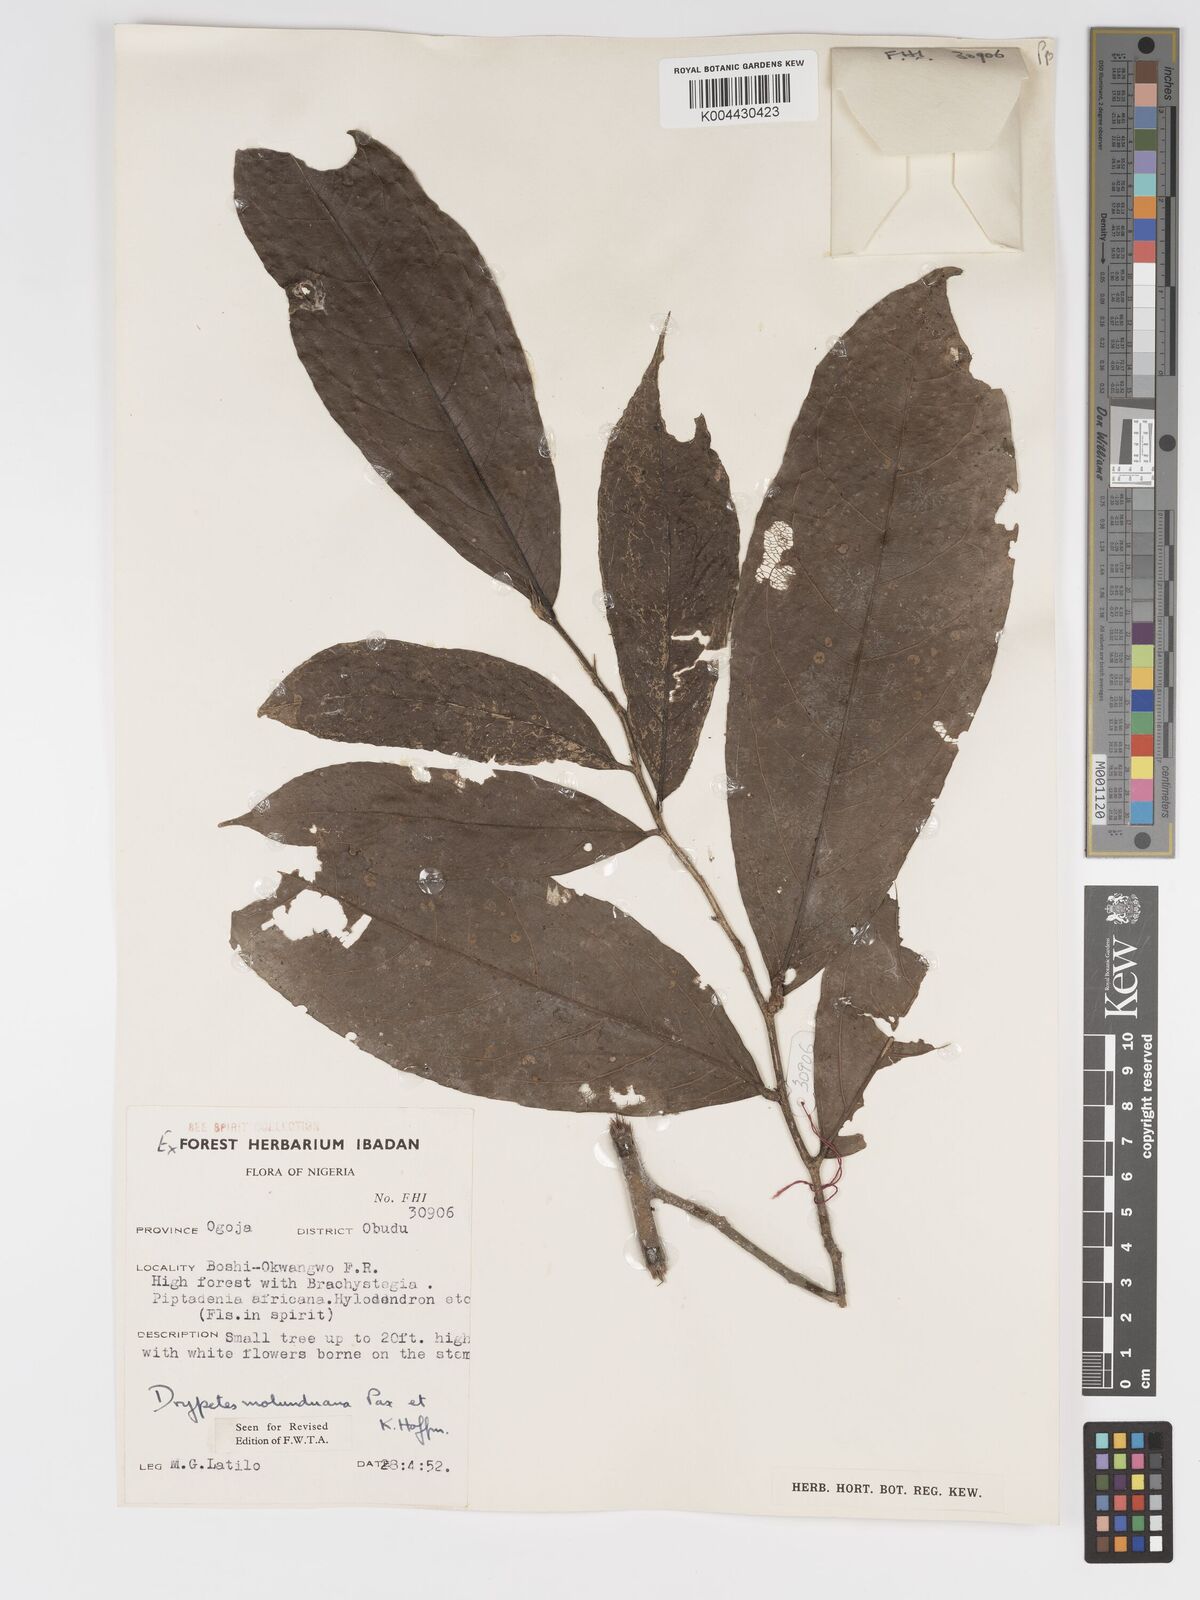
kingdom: Plantae
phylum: Tracheophyta
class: Magnoliopsida
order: Malpighiales
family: Putranjivaceae
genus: Drypetes
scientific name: Drypetes molunduana
